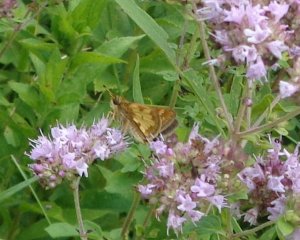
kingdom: Animalia
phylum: Arthropoda
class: Insecta
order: Lepidoptera
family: Hesperiidae
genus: Polites
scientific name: Polites coras
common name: Peck's Skipper
